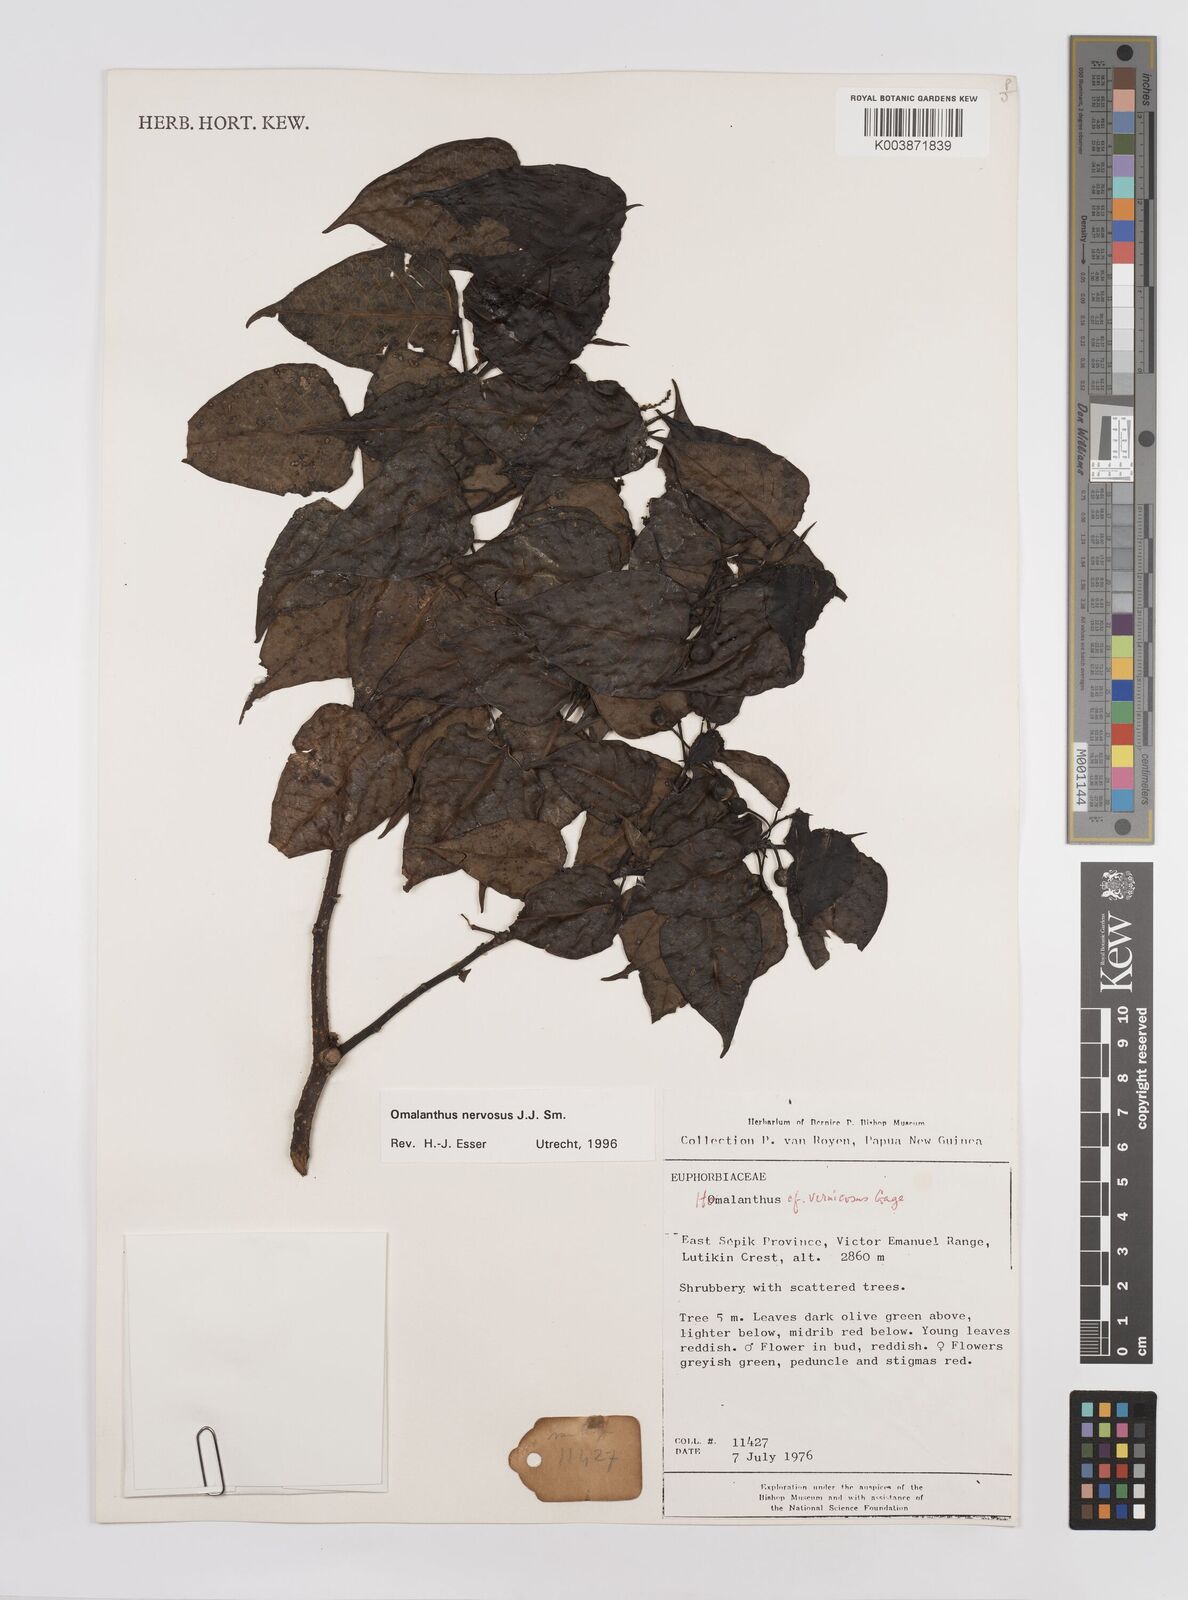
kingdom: Plantae
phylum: Tracheophyta
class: Magnoliopsida
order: Malpighiales
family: Euphorbiaceae
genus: Homalanthus
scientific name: Homalanthus nervosus
